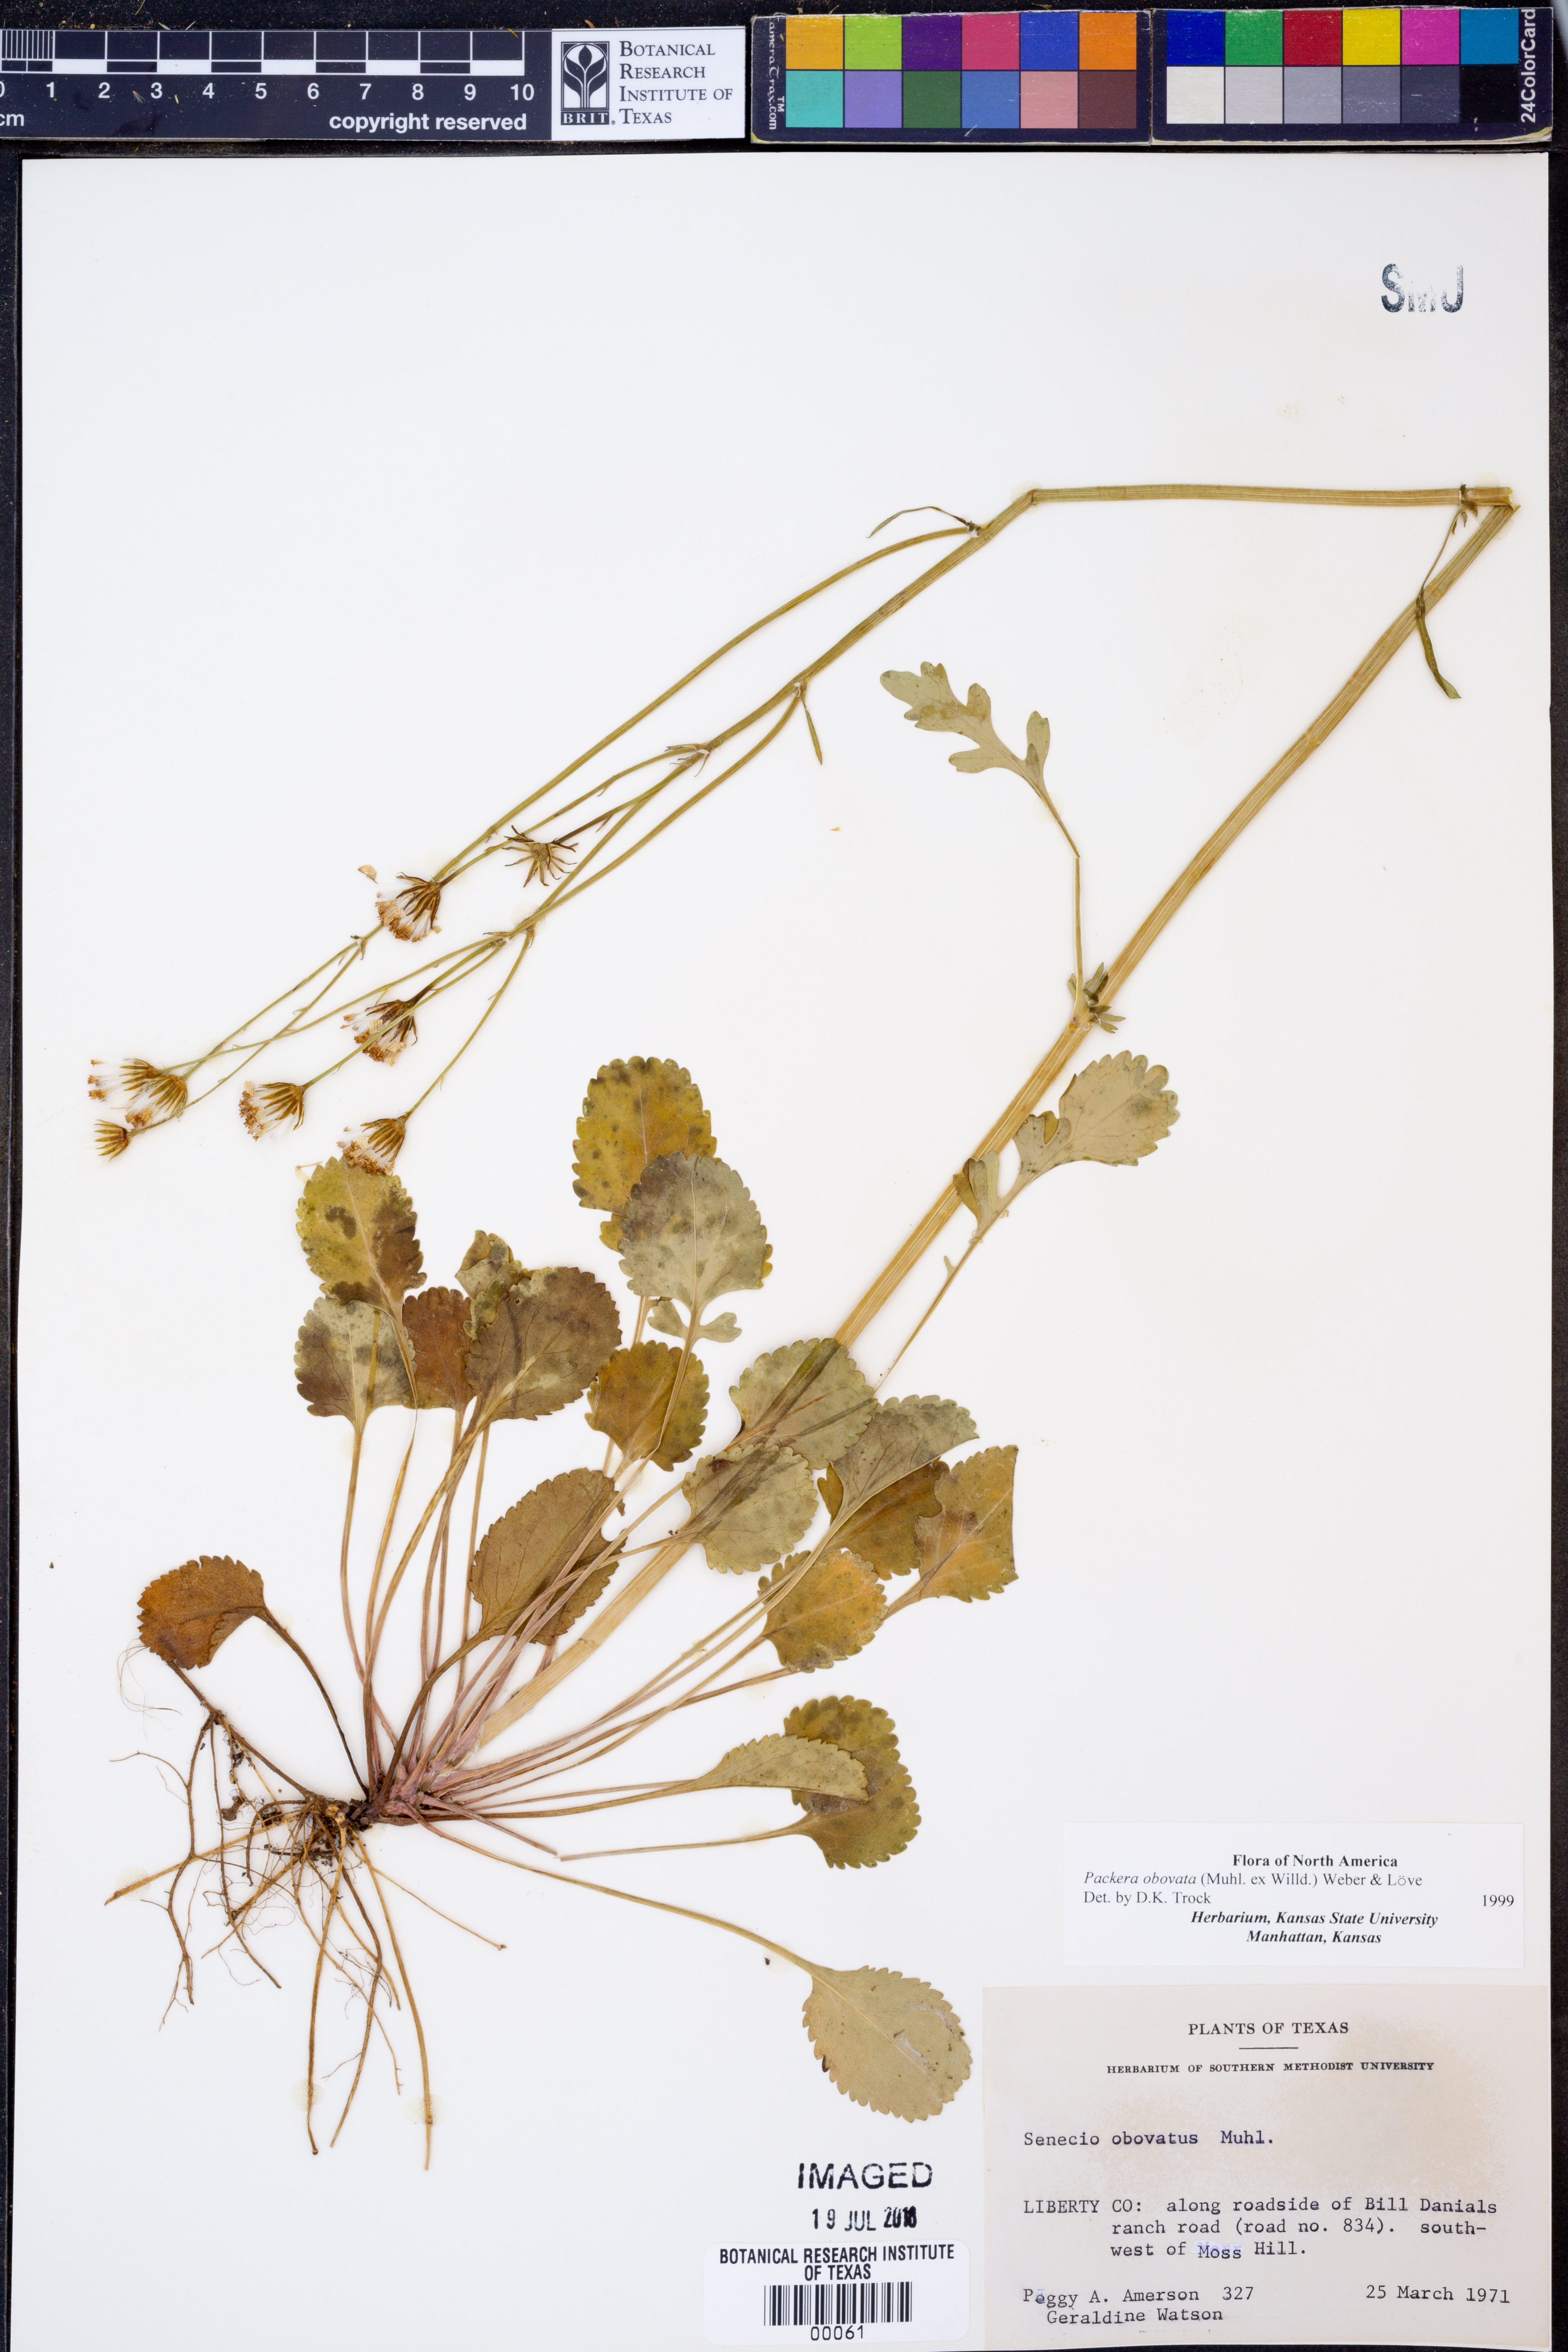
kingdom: Plantae
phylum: Tracheophyta
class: Magnoliopsida
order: Asterales
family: Asteraceae
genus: Packera
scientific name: Packera obovata
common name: Round-leaf ragwort
